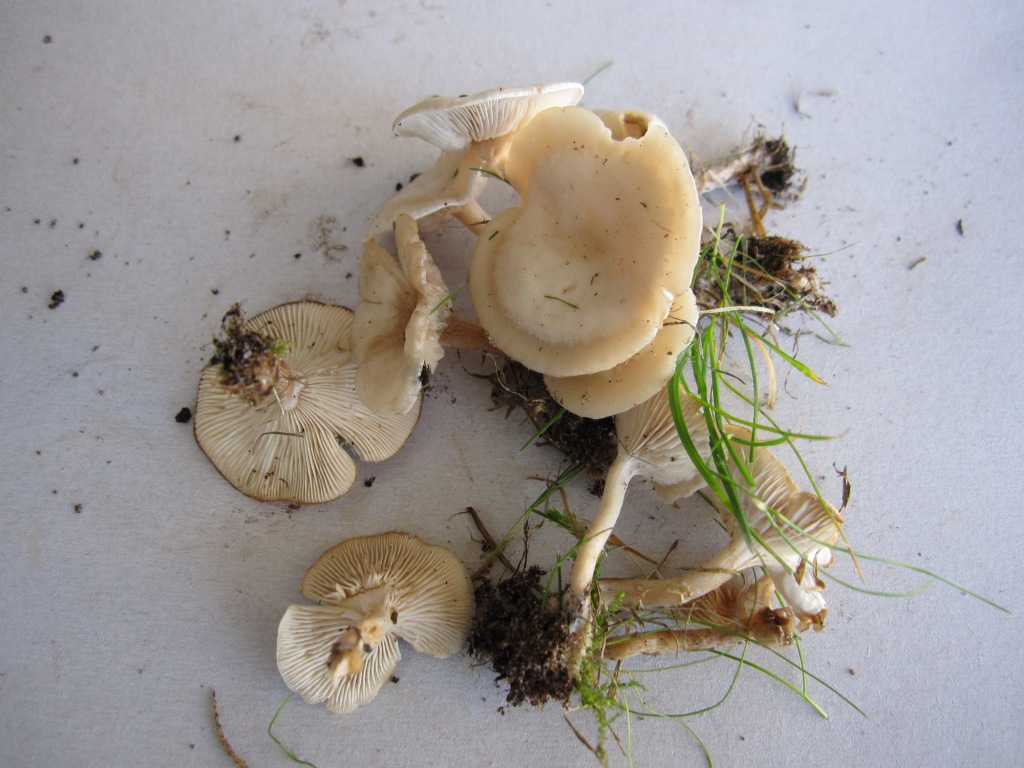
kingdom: Fungi
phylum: Basidiomycota
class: Agaricomycetes
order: Agaricales
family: Tricholomataceae
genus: Clitocybe
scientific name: Clitocybe agrestis
